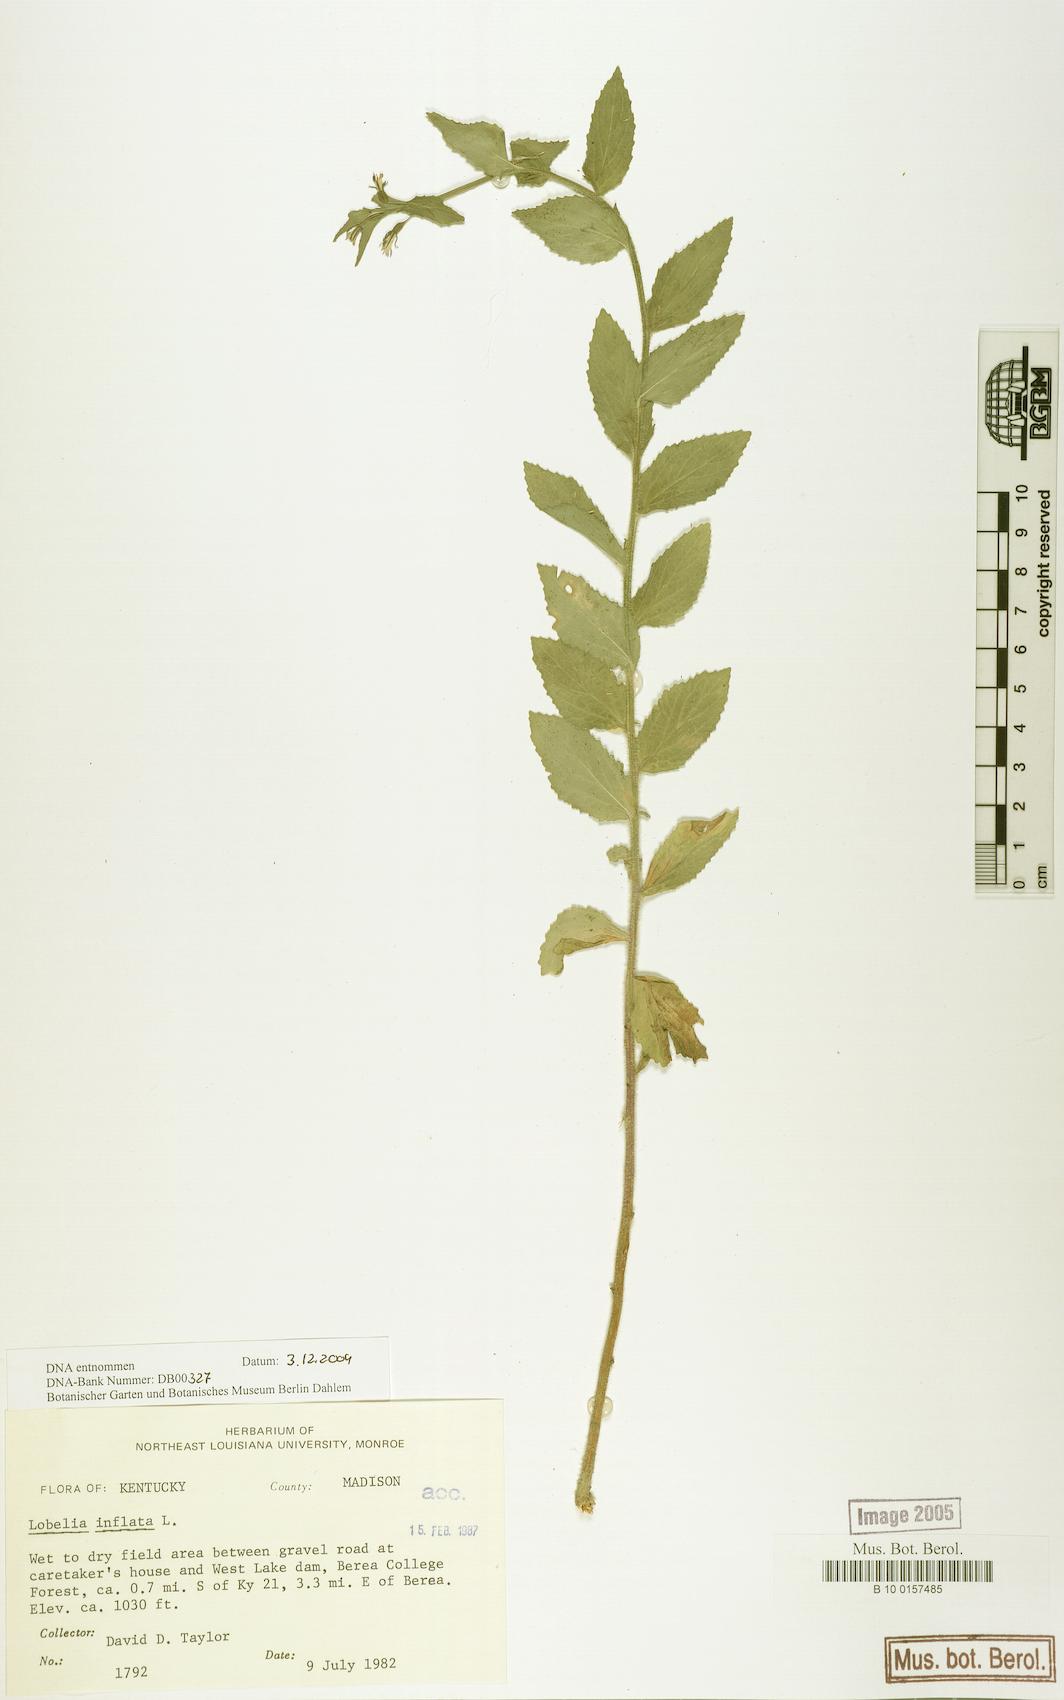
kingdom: Plantae
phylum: Tracheophyta
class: Magnoliopsida
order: Asterales
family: Campanulaceae
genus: Lobelia
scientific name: Lobelia inflata
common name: Indian tobacco
